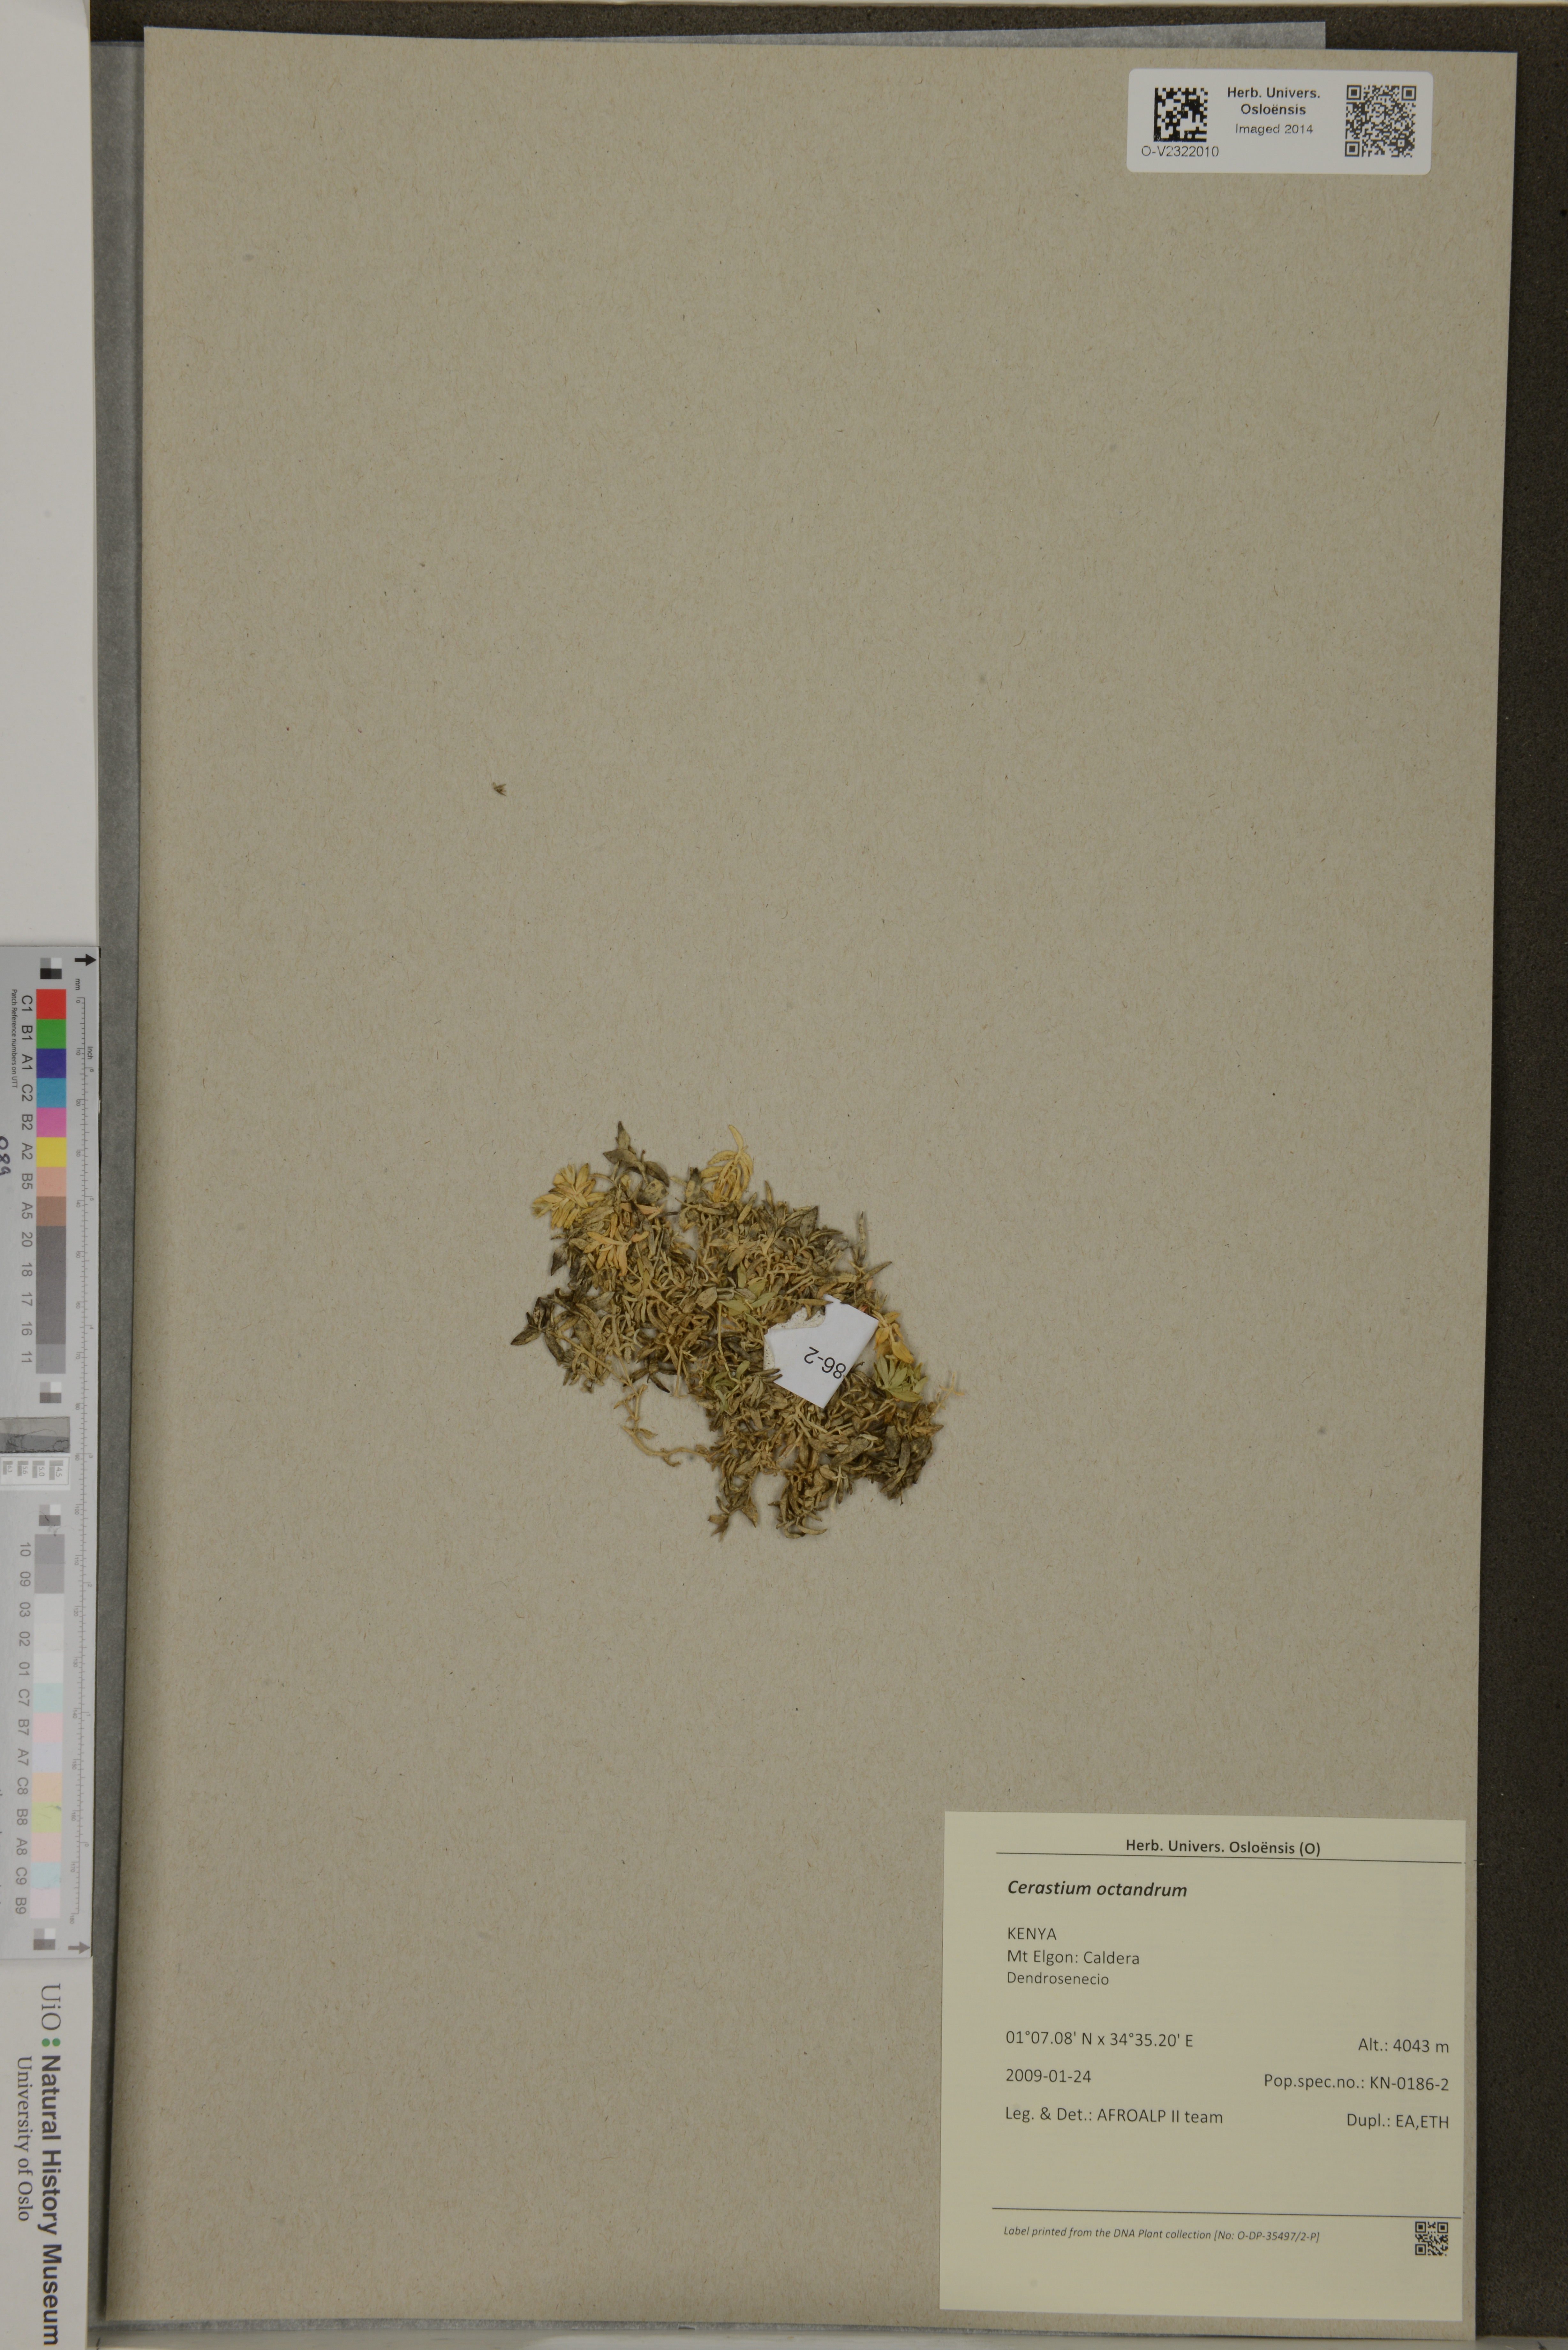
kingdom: Plantae
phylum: Tracheophyta
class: Magnoliopsida
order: Caryophyllales
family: Caryophyllaceae
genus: Cerastium
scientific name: Cerastium octandrum
